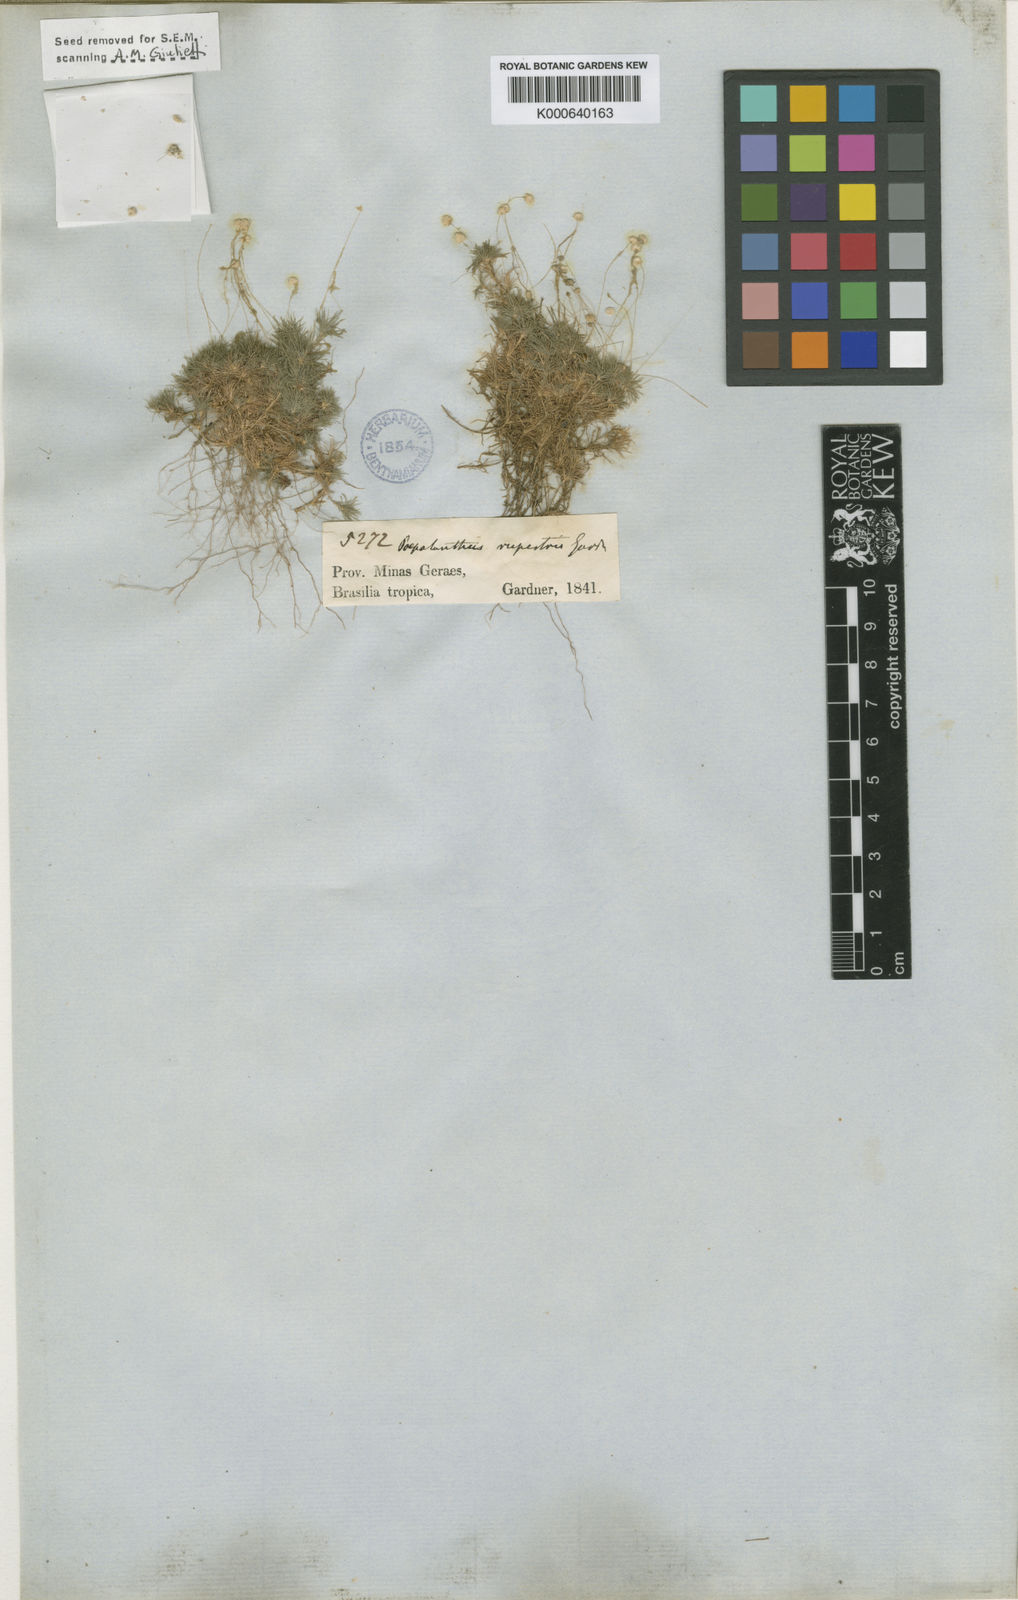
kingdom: Plantae
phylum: Tracheophyta
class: Liliopsida
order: Poales
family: Eriocaulaceae
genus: Paepalanthus
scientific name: Paepalanthus rupestris
